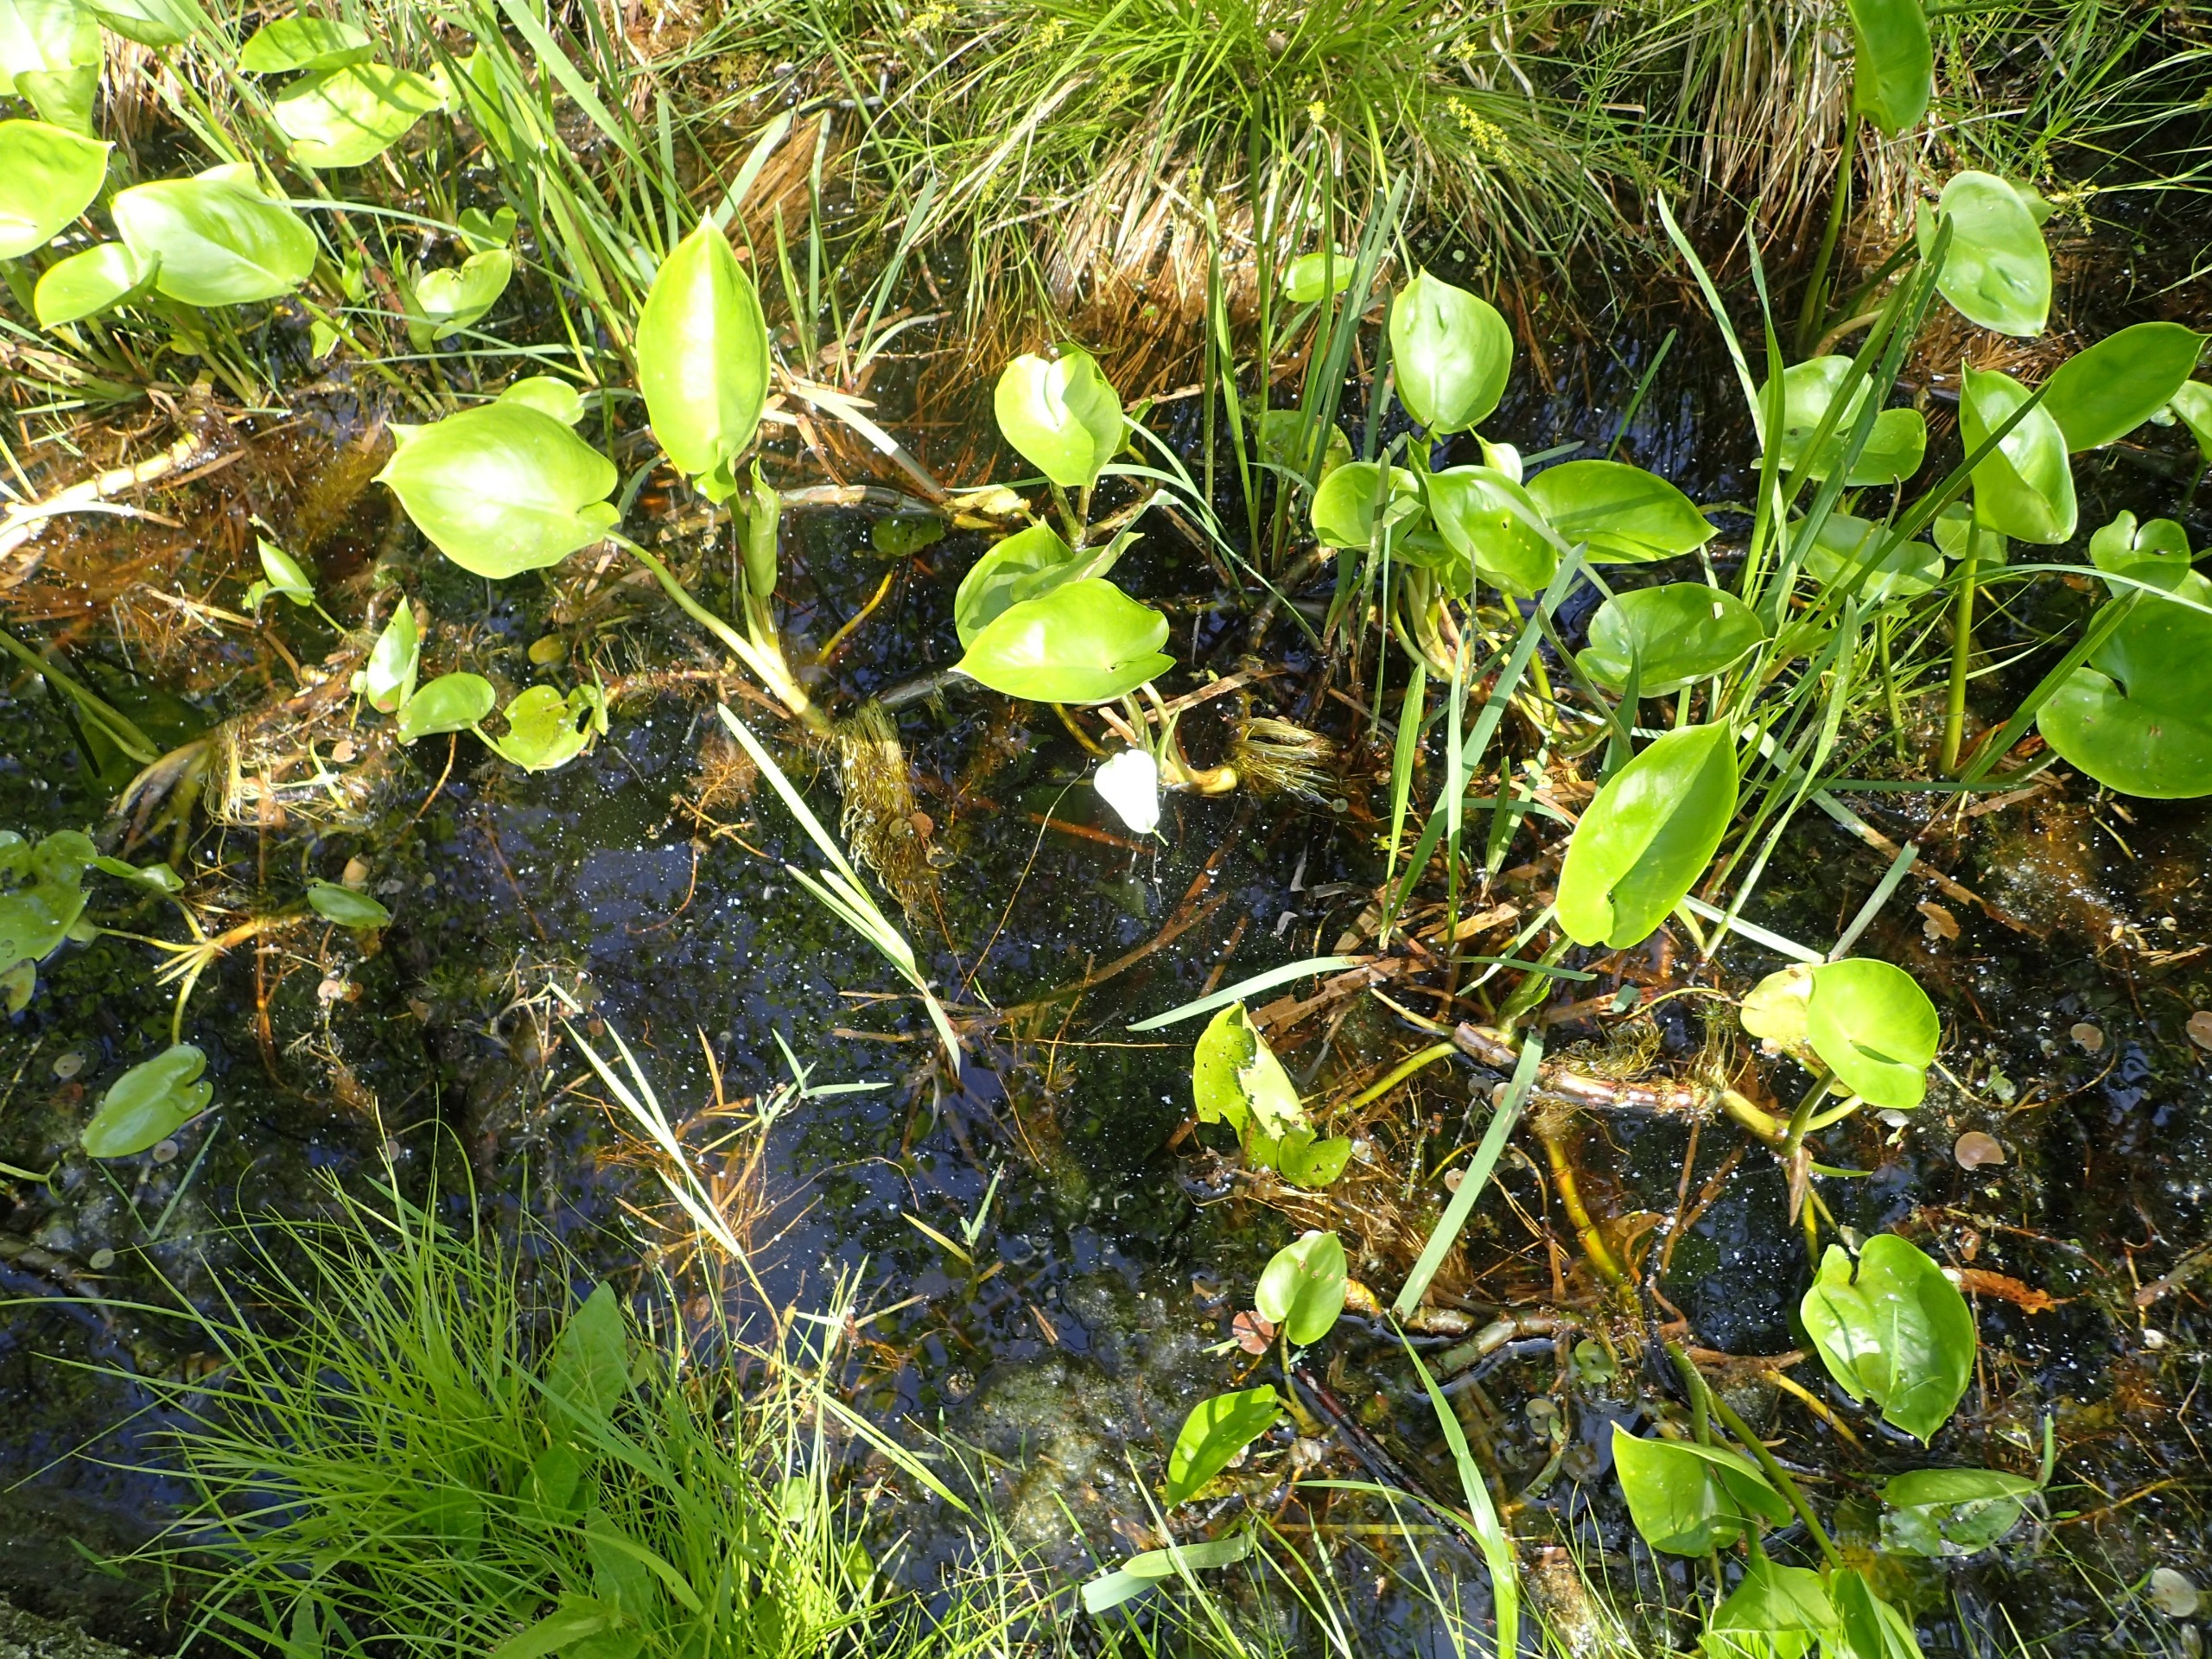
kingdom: Plantae
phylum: Tracheophyta
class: Liliopsida
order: Alismatales
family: Araceae
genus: Calla
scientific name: Calla palustris
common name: Kærmysse
